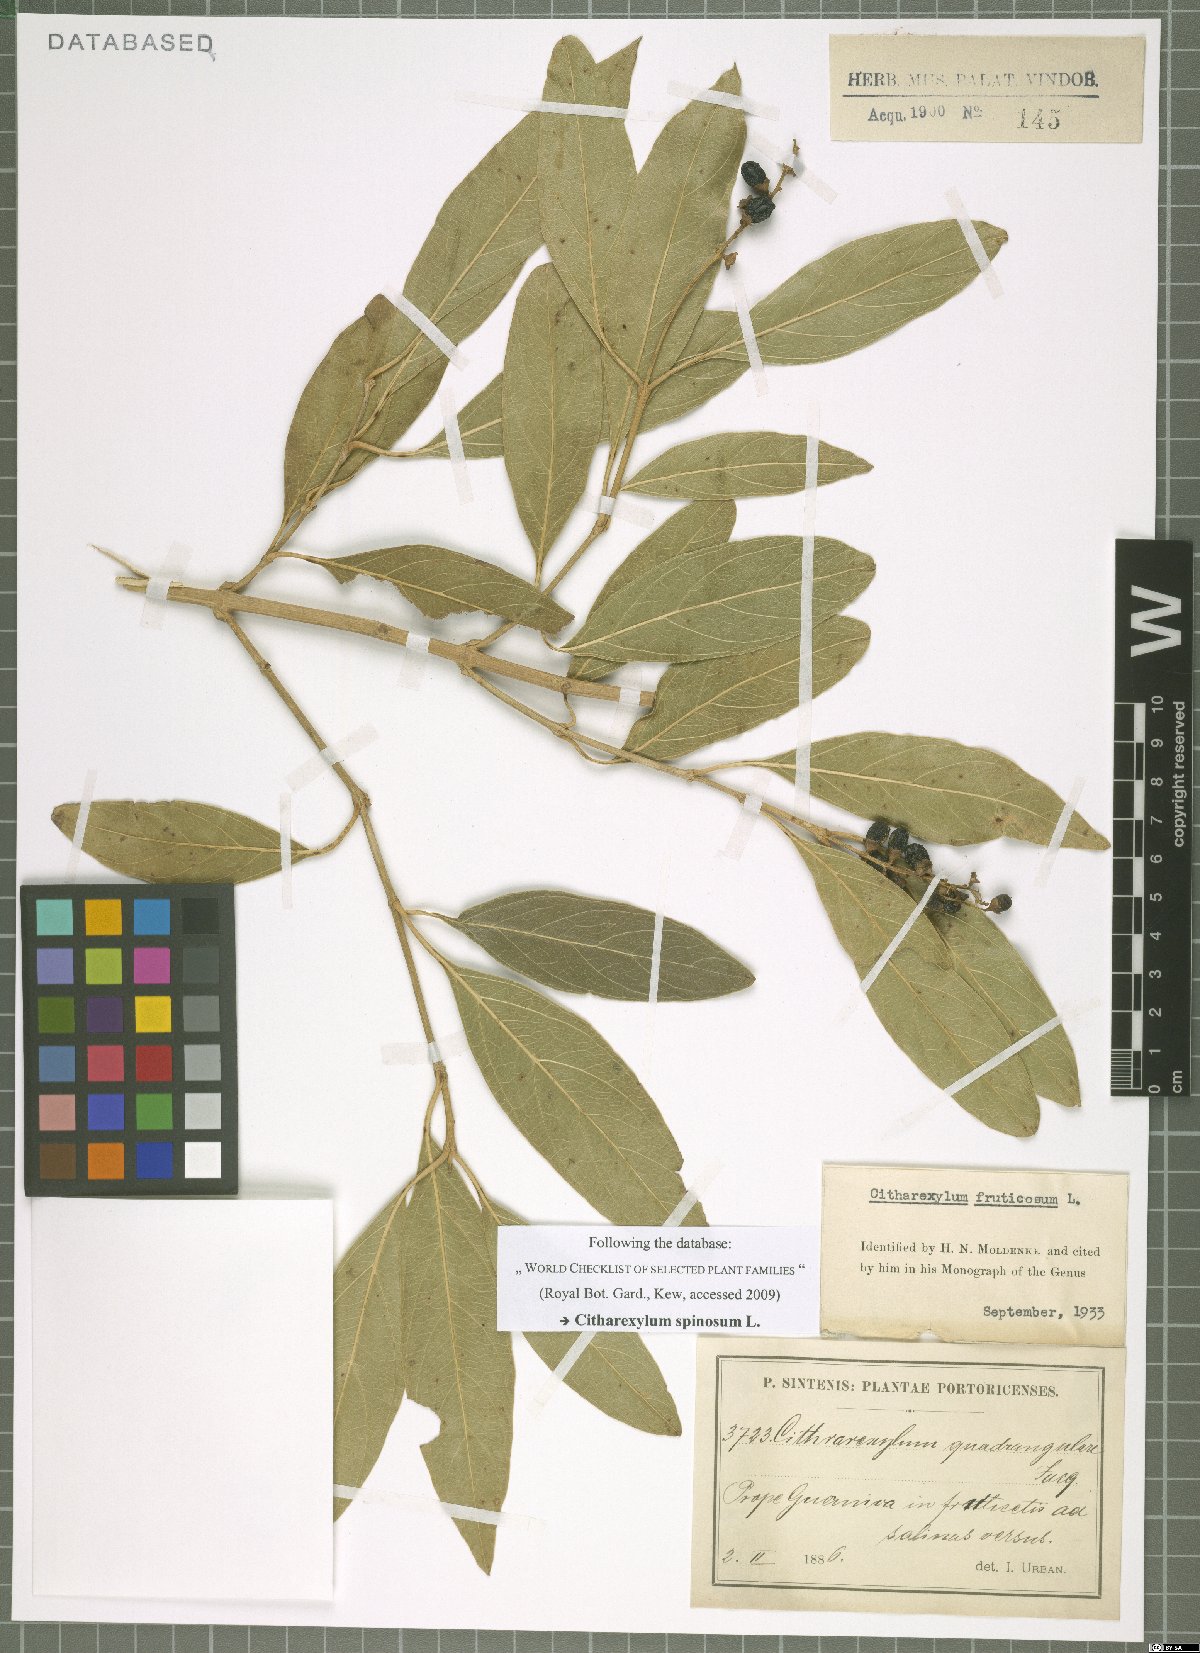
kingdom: Plantae
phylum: Tracheophyta
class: Magnoliopsida
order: Lamiales
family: Verbenaceae
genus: Citharexylum
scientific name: Citharexylum spinosum
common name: Fiddlewood
